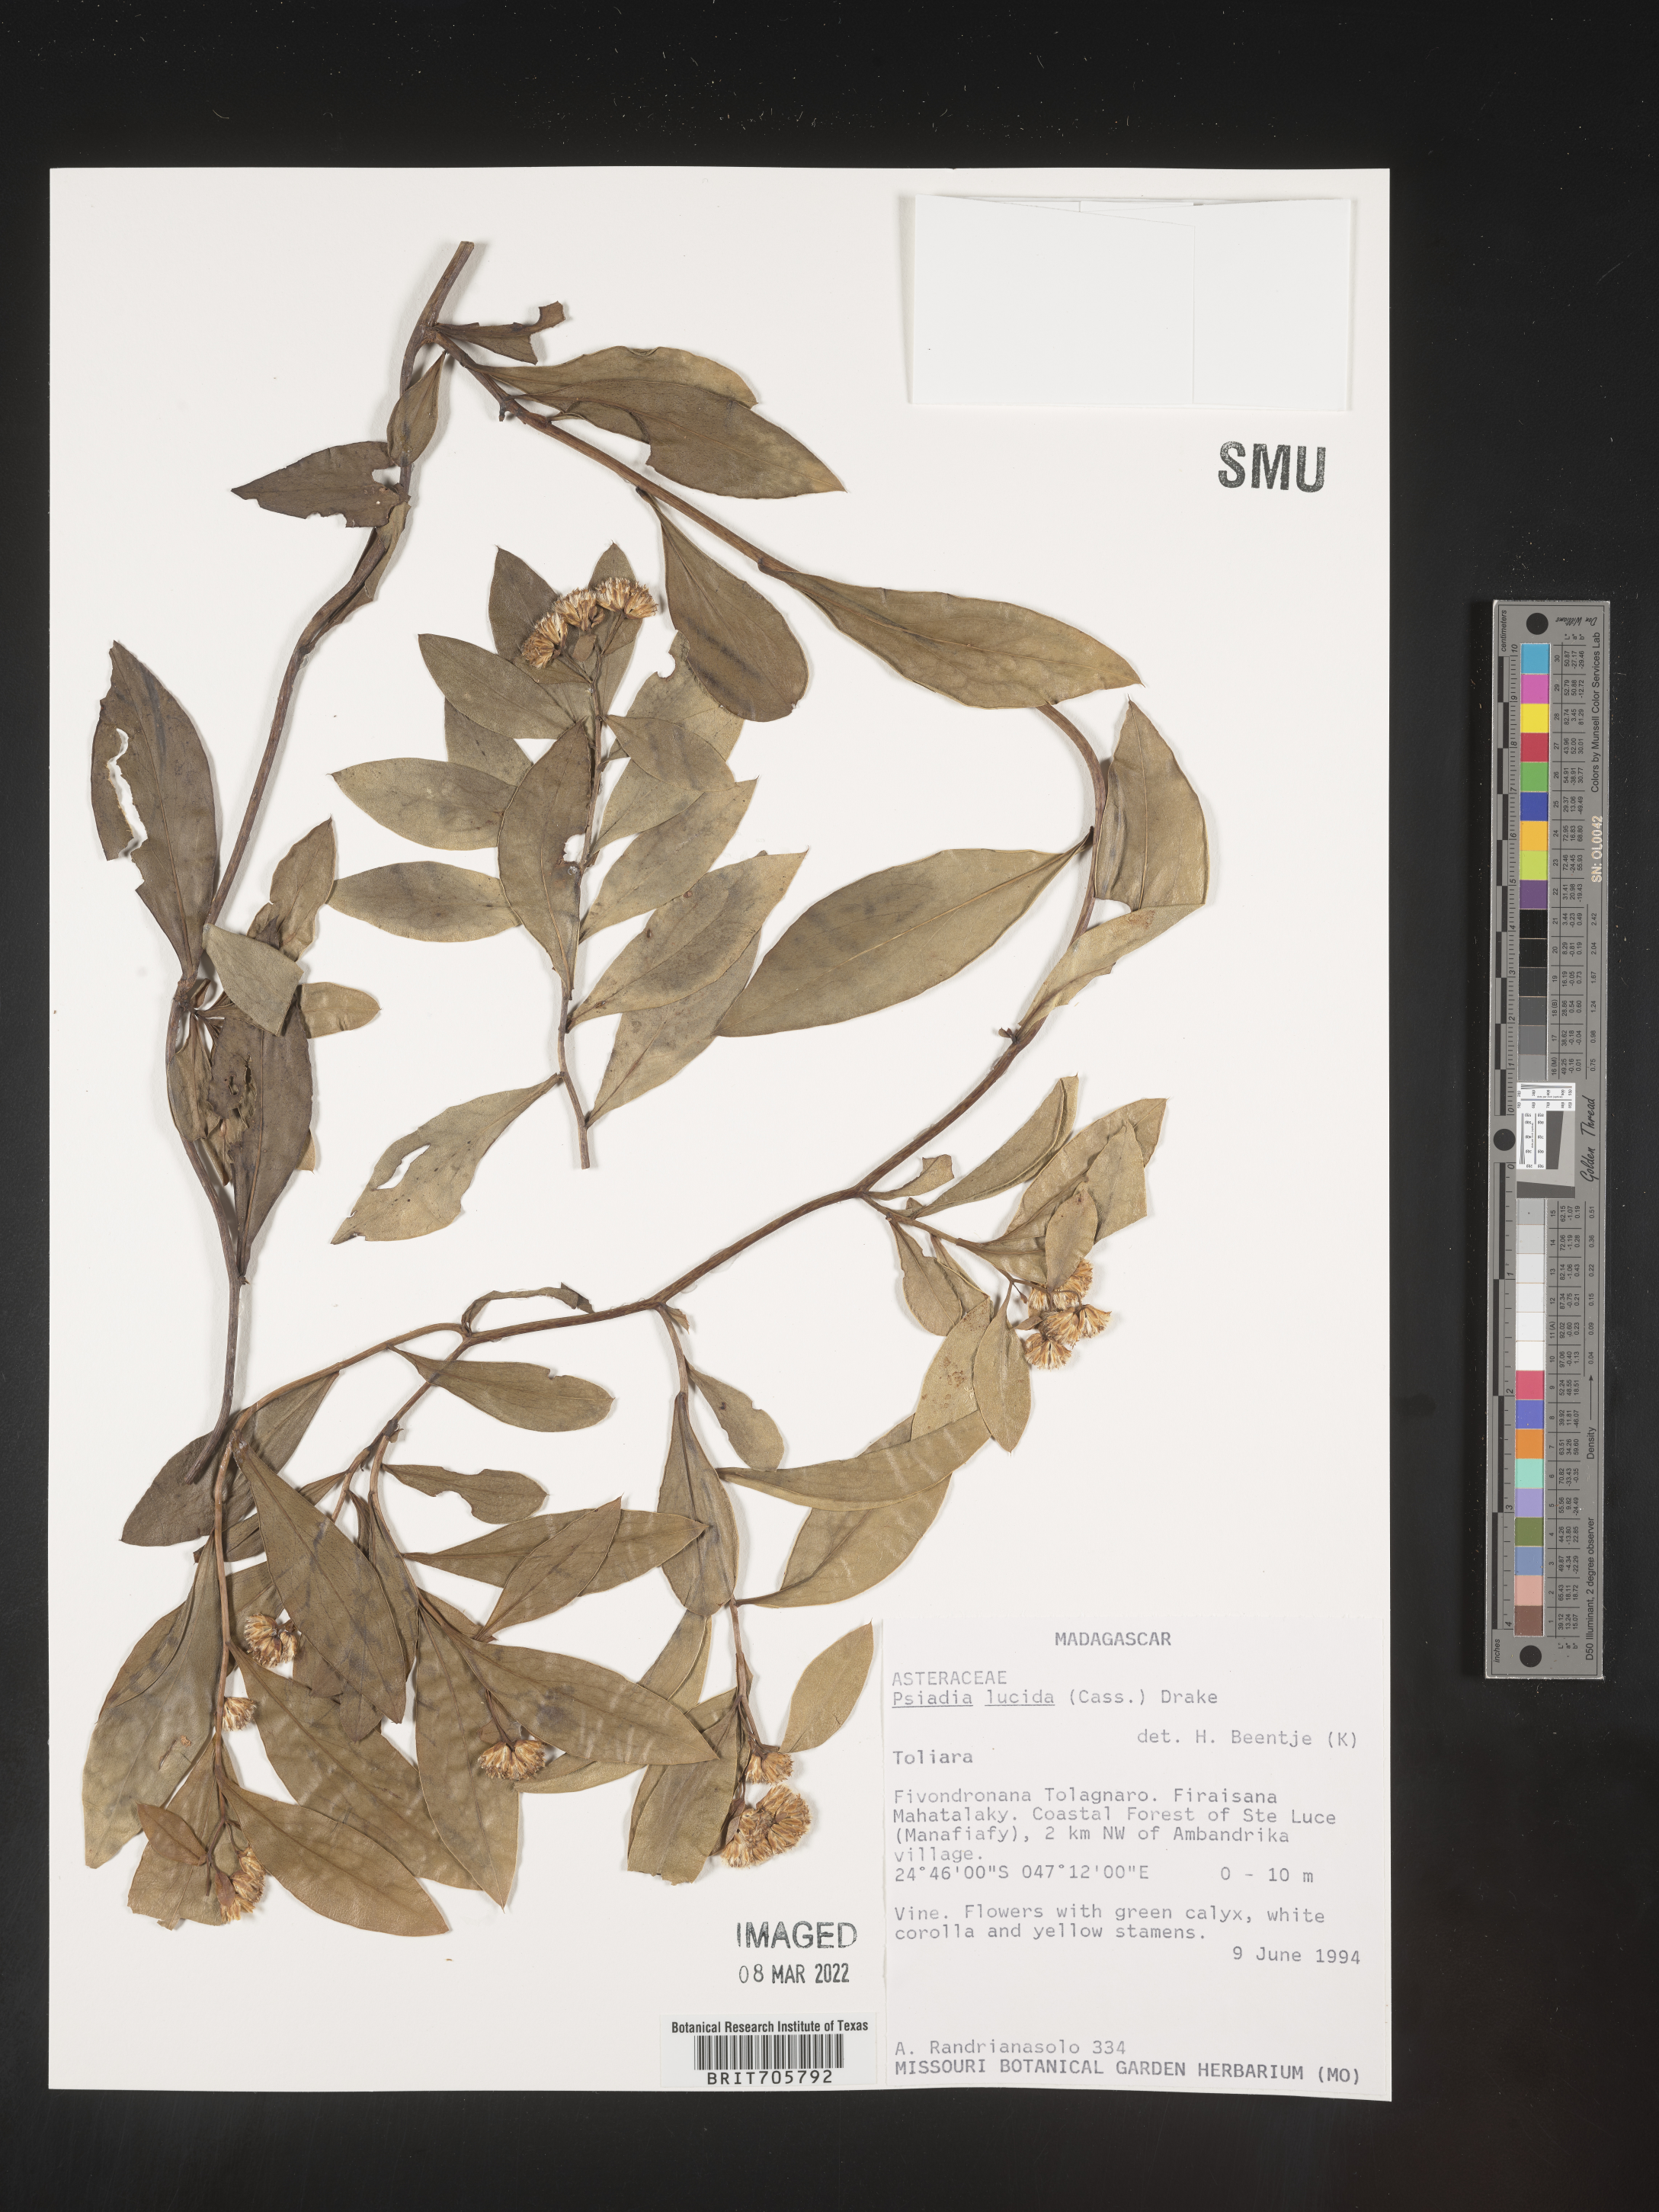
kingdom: Plantae
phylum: Tracheophyta
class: Magnoliopsida
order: Asterales
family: Asteraceae
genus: Psiadia
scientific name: Psiadia
